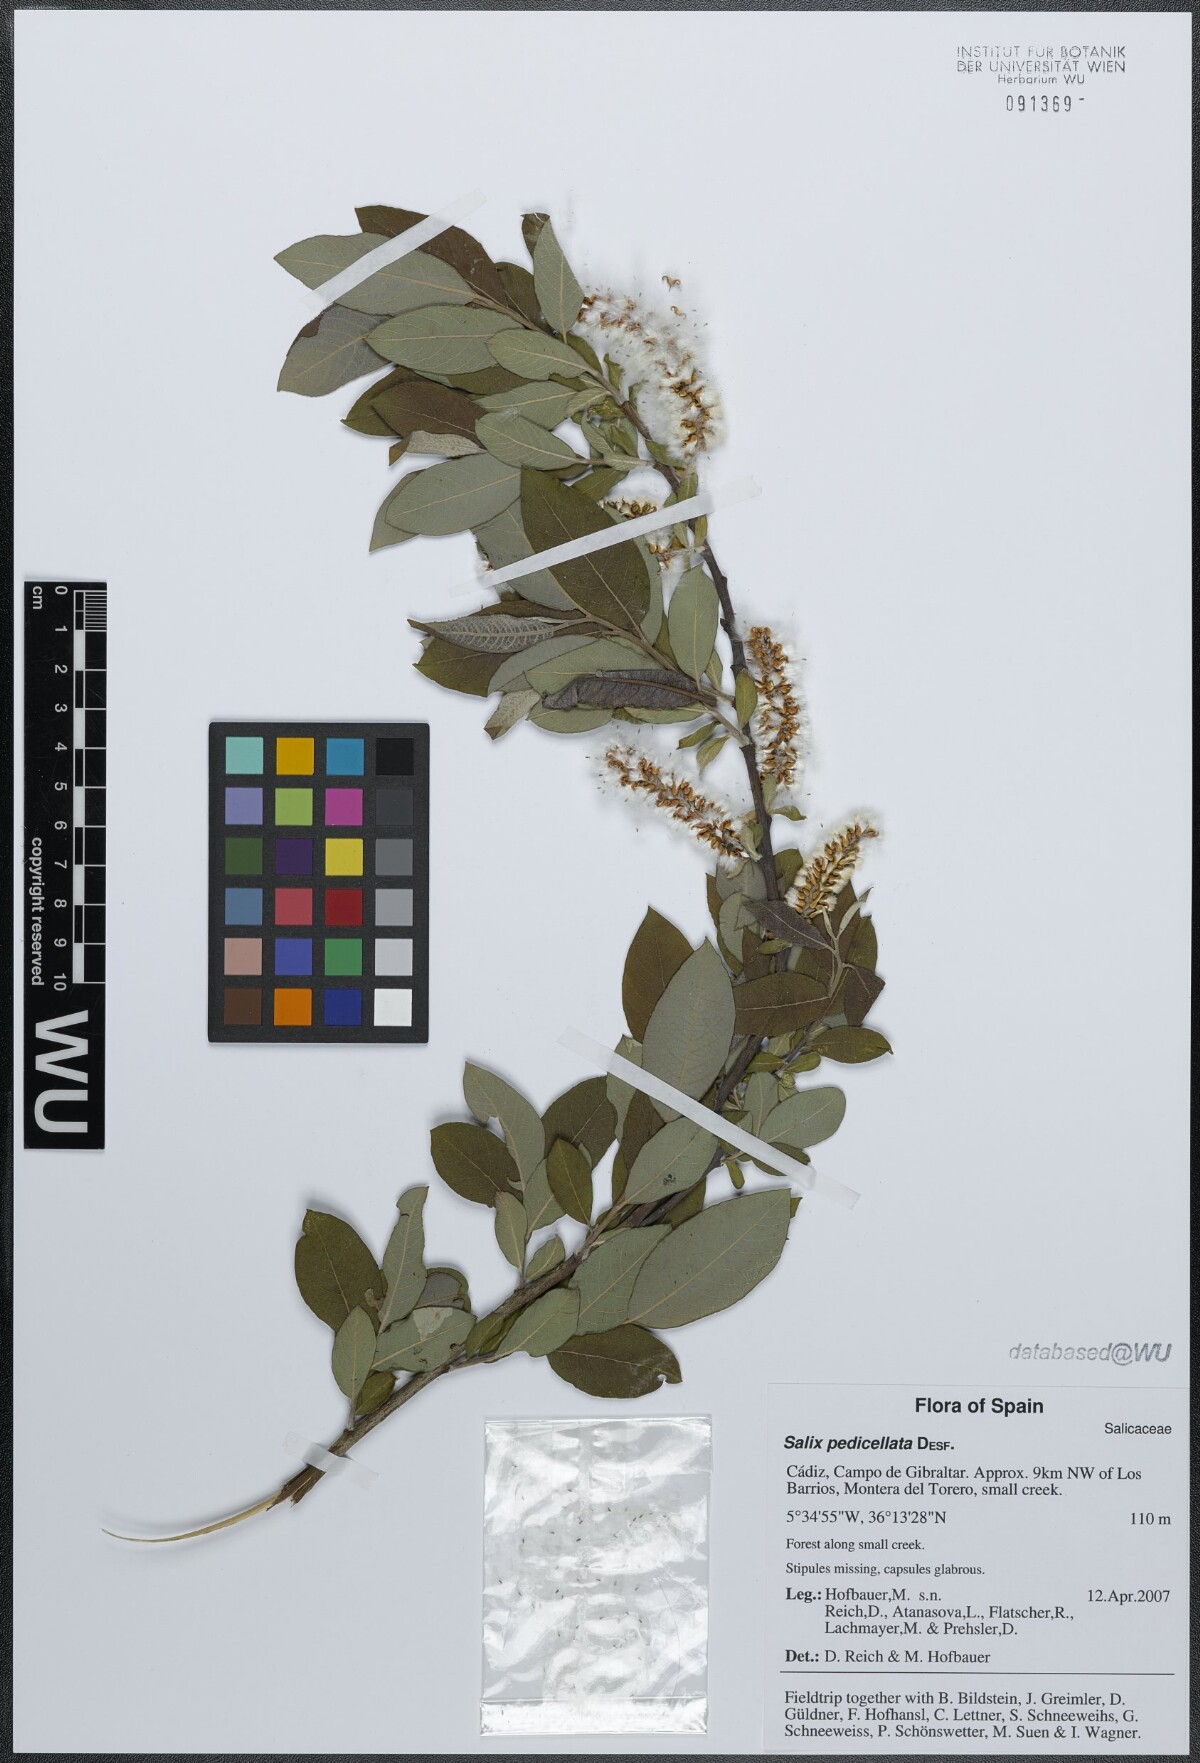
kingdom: Plantae
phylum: Tracheophyta
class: Magnoliopsida
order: Malpighiales
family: Salicaceae
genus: Salix
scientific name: Salix pedicellata
